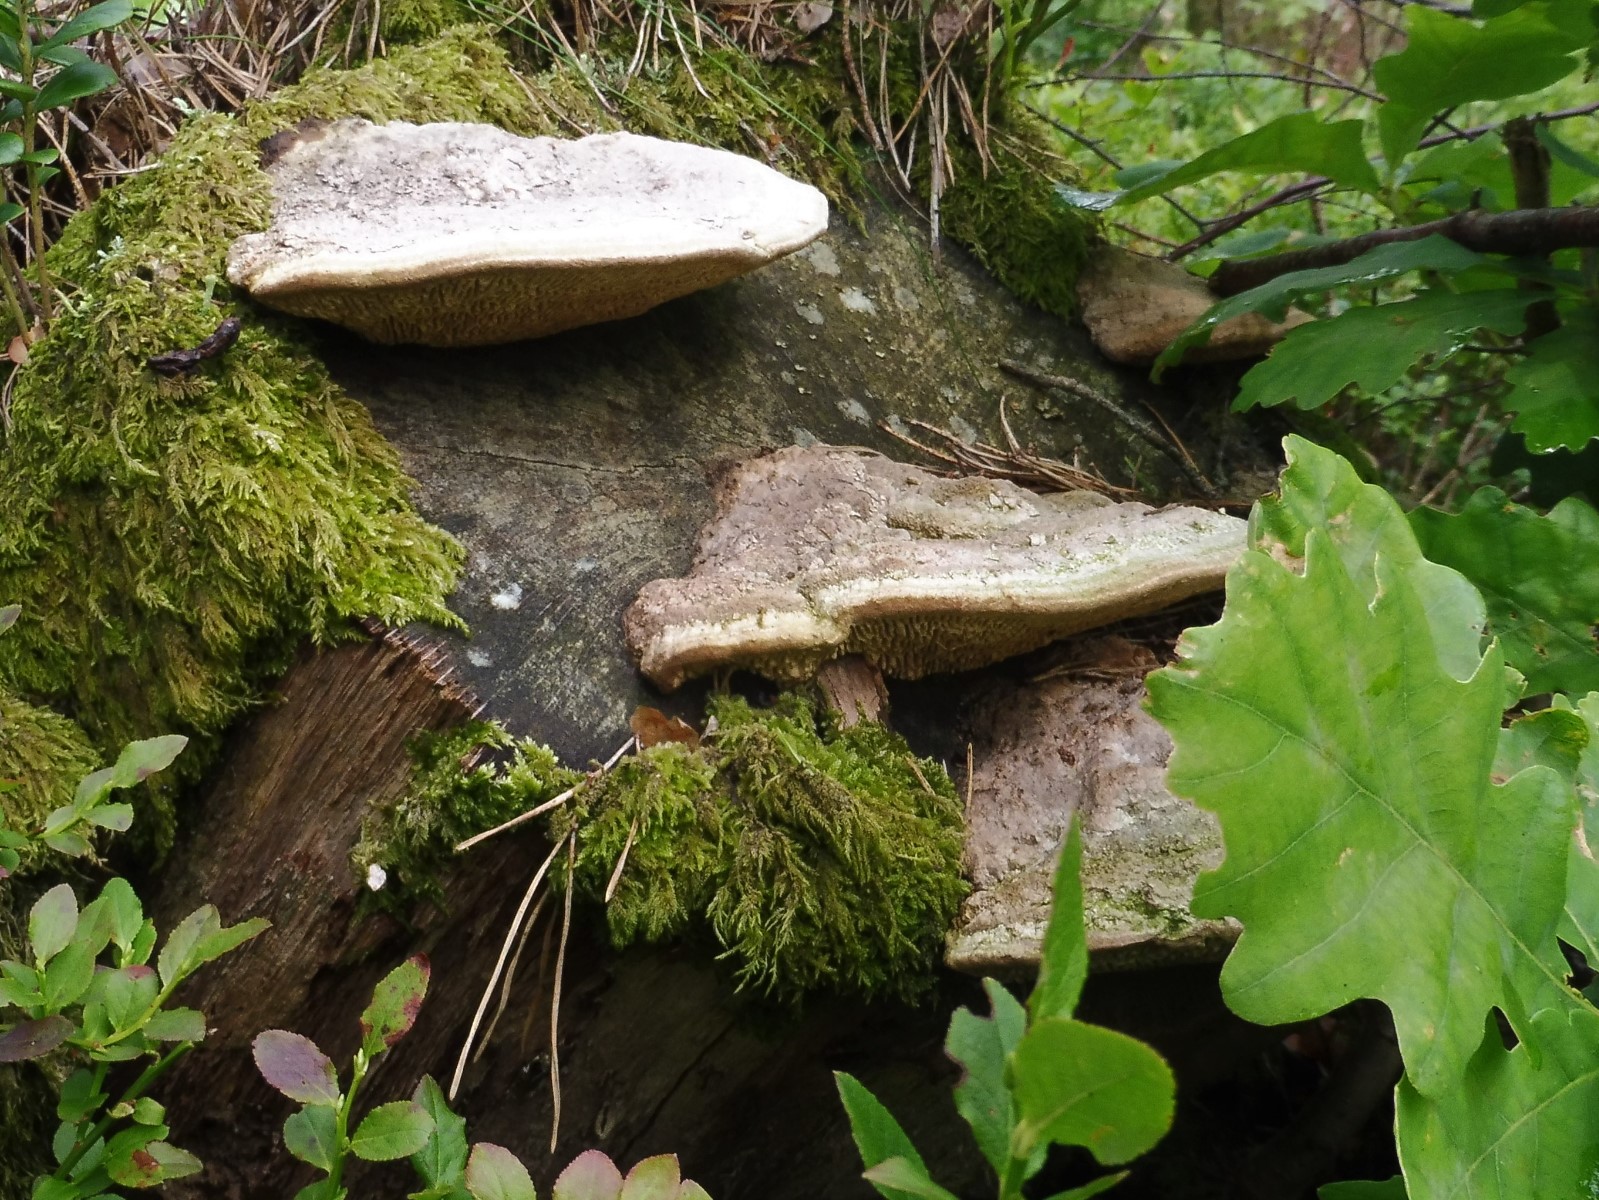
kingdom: Fungi
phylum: Basidiomycota
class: Agaricomycetes
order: Polyporales
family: Fomitopsidaceae
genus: Daedalea
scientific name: Daedalea quercina
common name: ege-labyrintsvamp
